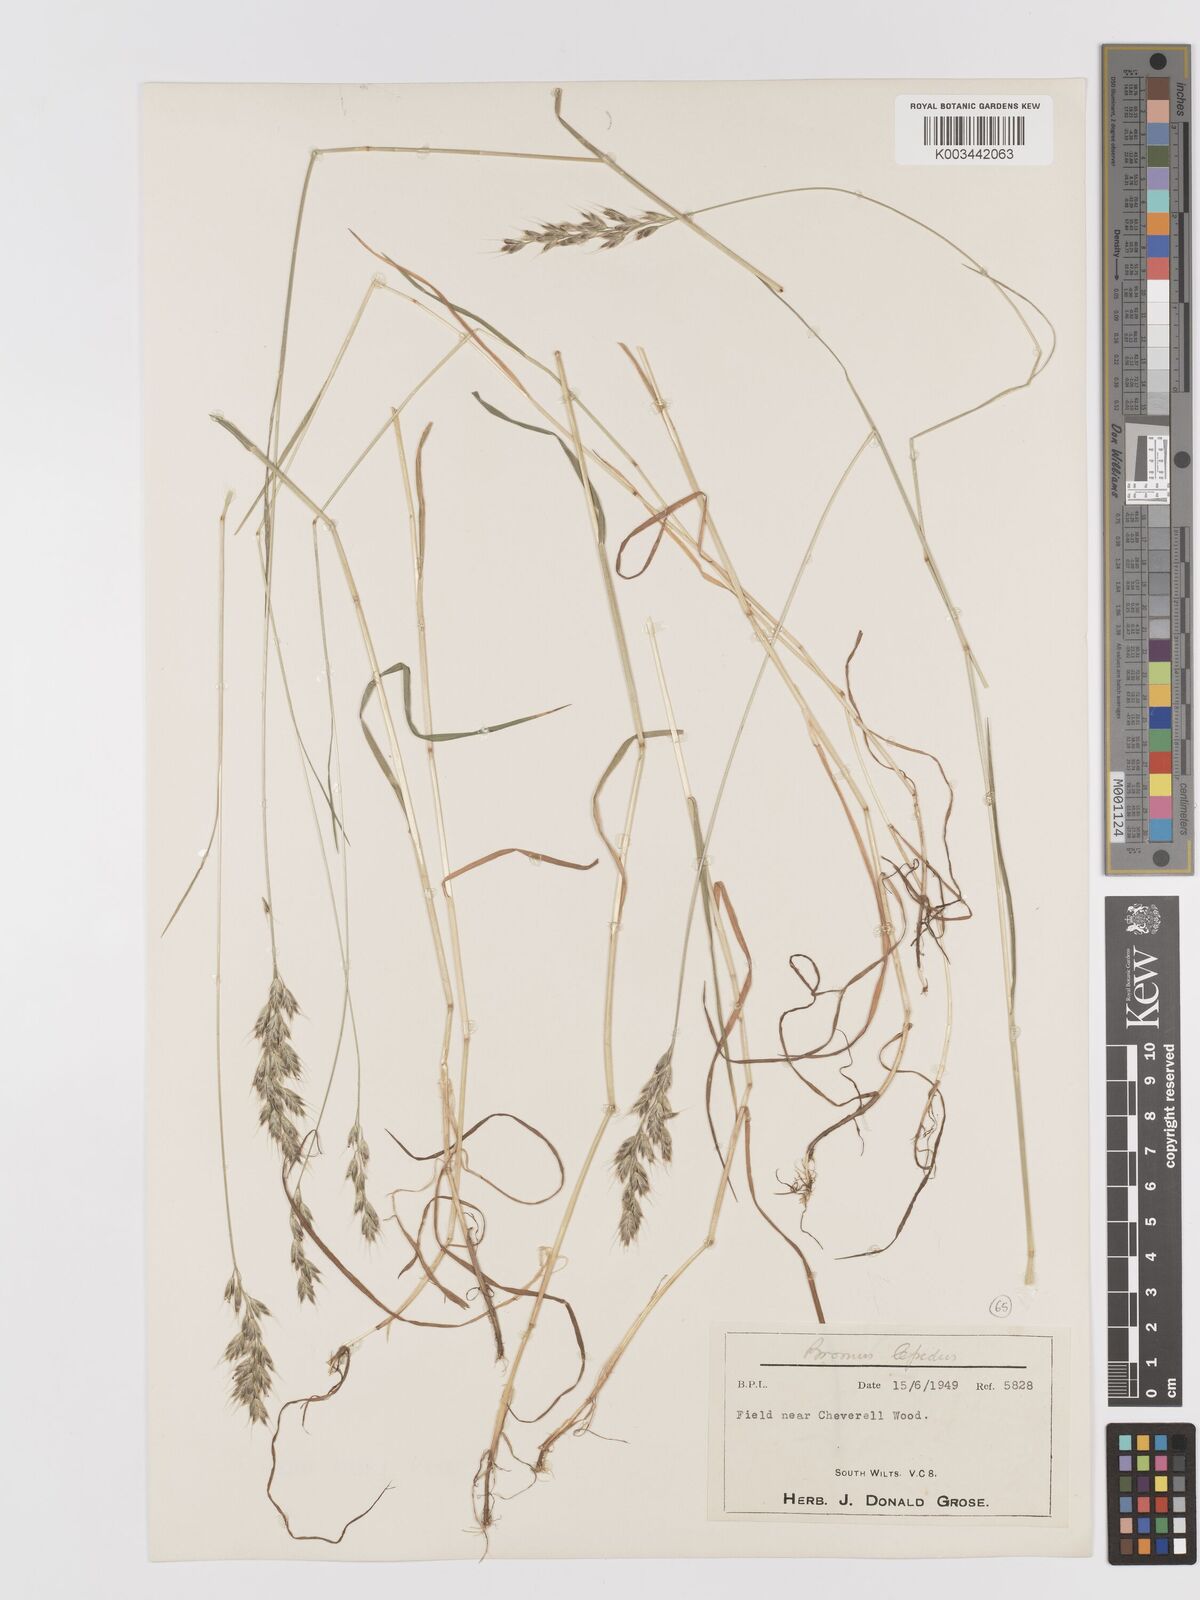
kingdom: Plantae
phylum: Tracheophyta
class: Liliopsida
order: Poales
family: Poaceae
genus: Bromus
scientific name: Bromus lepidus
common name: Slender soft-brome
